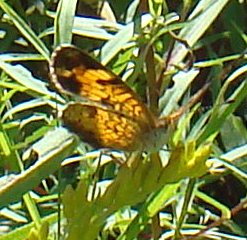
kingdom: Animalia
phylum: Arthropoda
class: Insecta
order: Lepidoptera
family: Nymphalidae
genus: Phyciodes
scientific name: Phyciodes tharos
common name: Pearl Crescent
